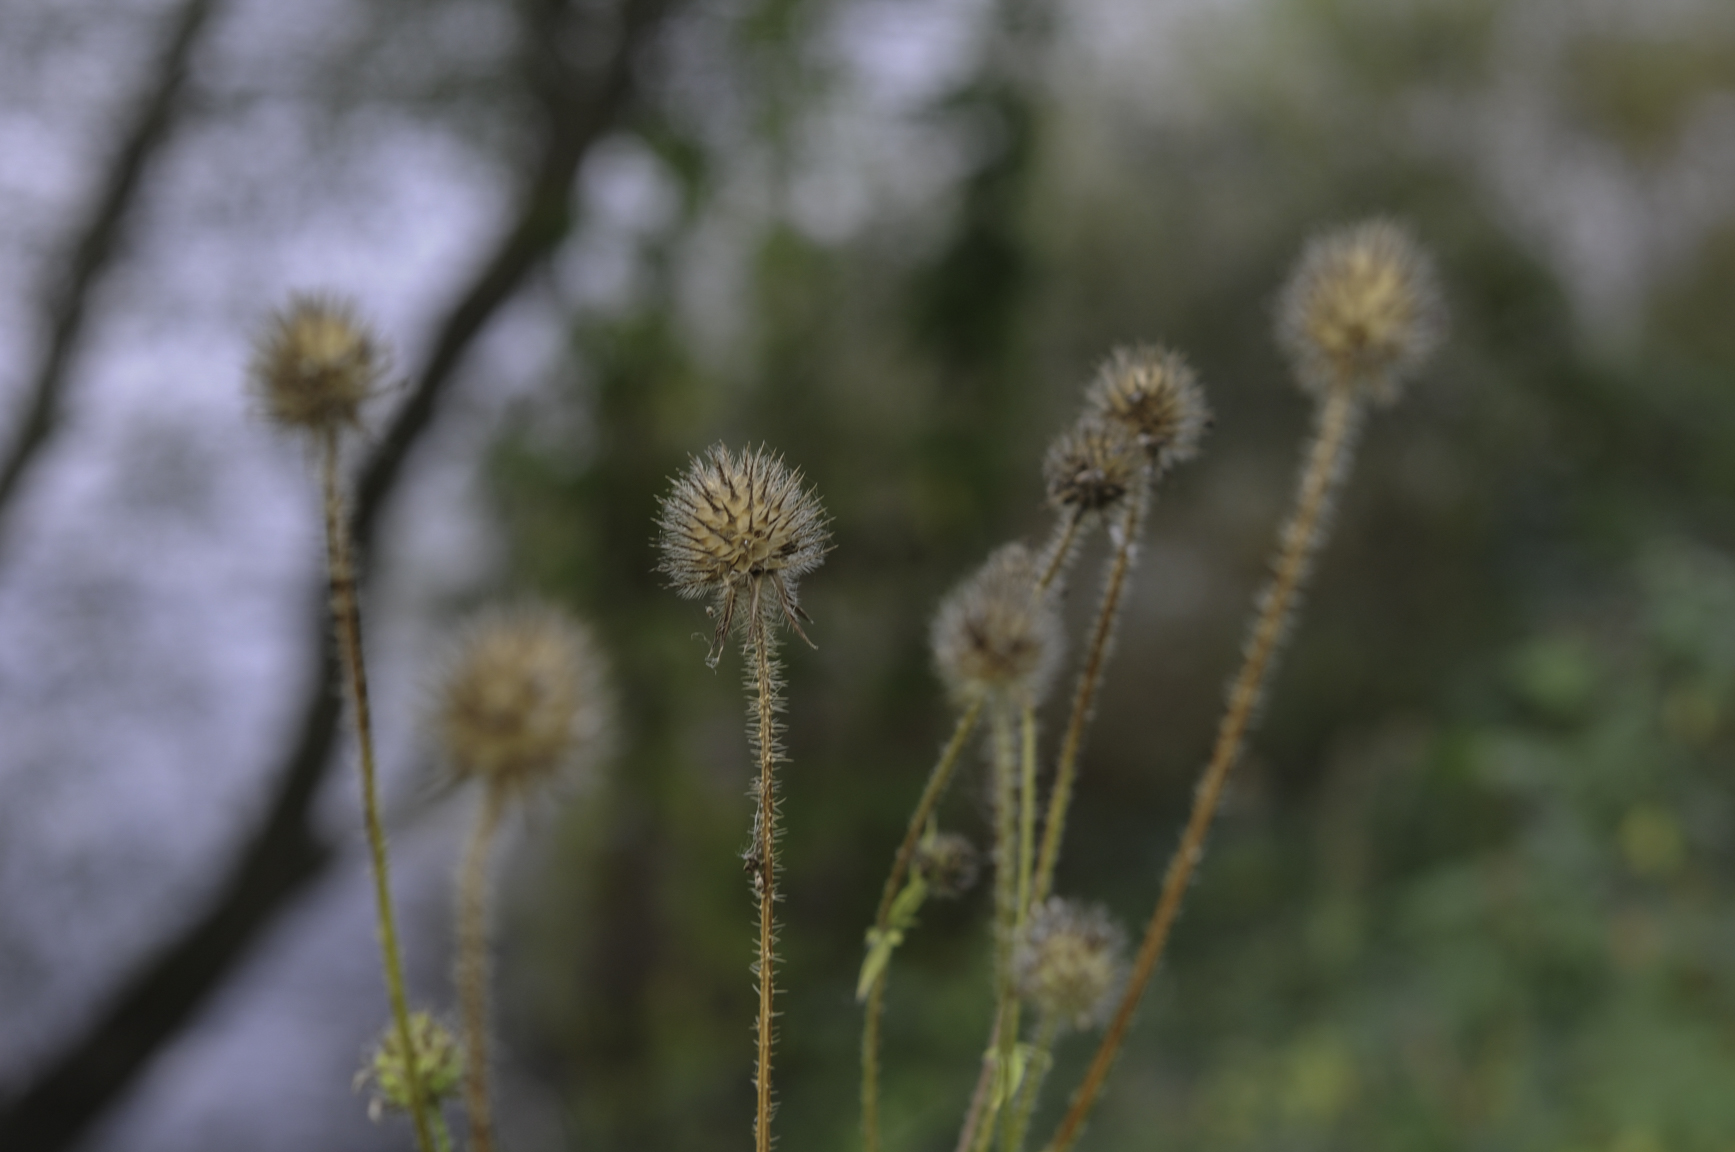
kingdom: Plantae
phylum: Tracheophyta
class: Magnoliopsida
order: Dipsacales
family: Caprifoliaceae
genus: Dipsacus
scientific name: Dipsacus pilosus
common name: Small teasel
